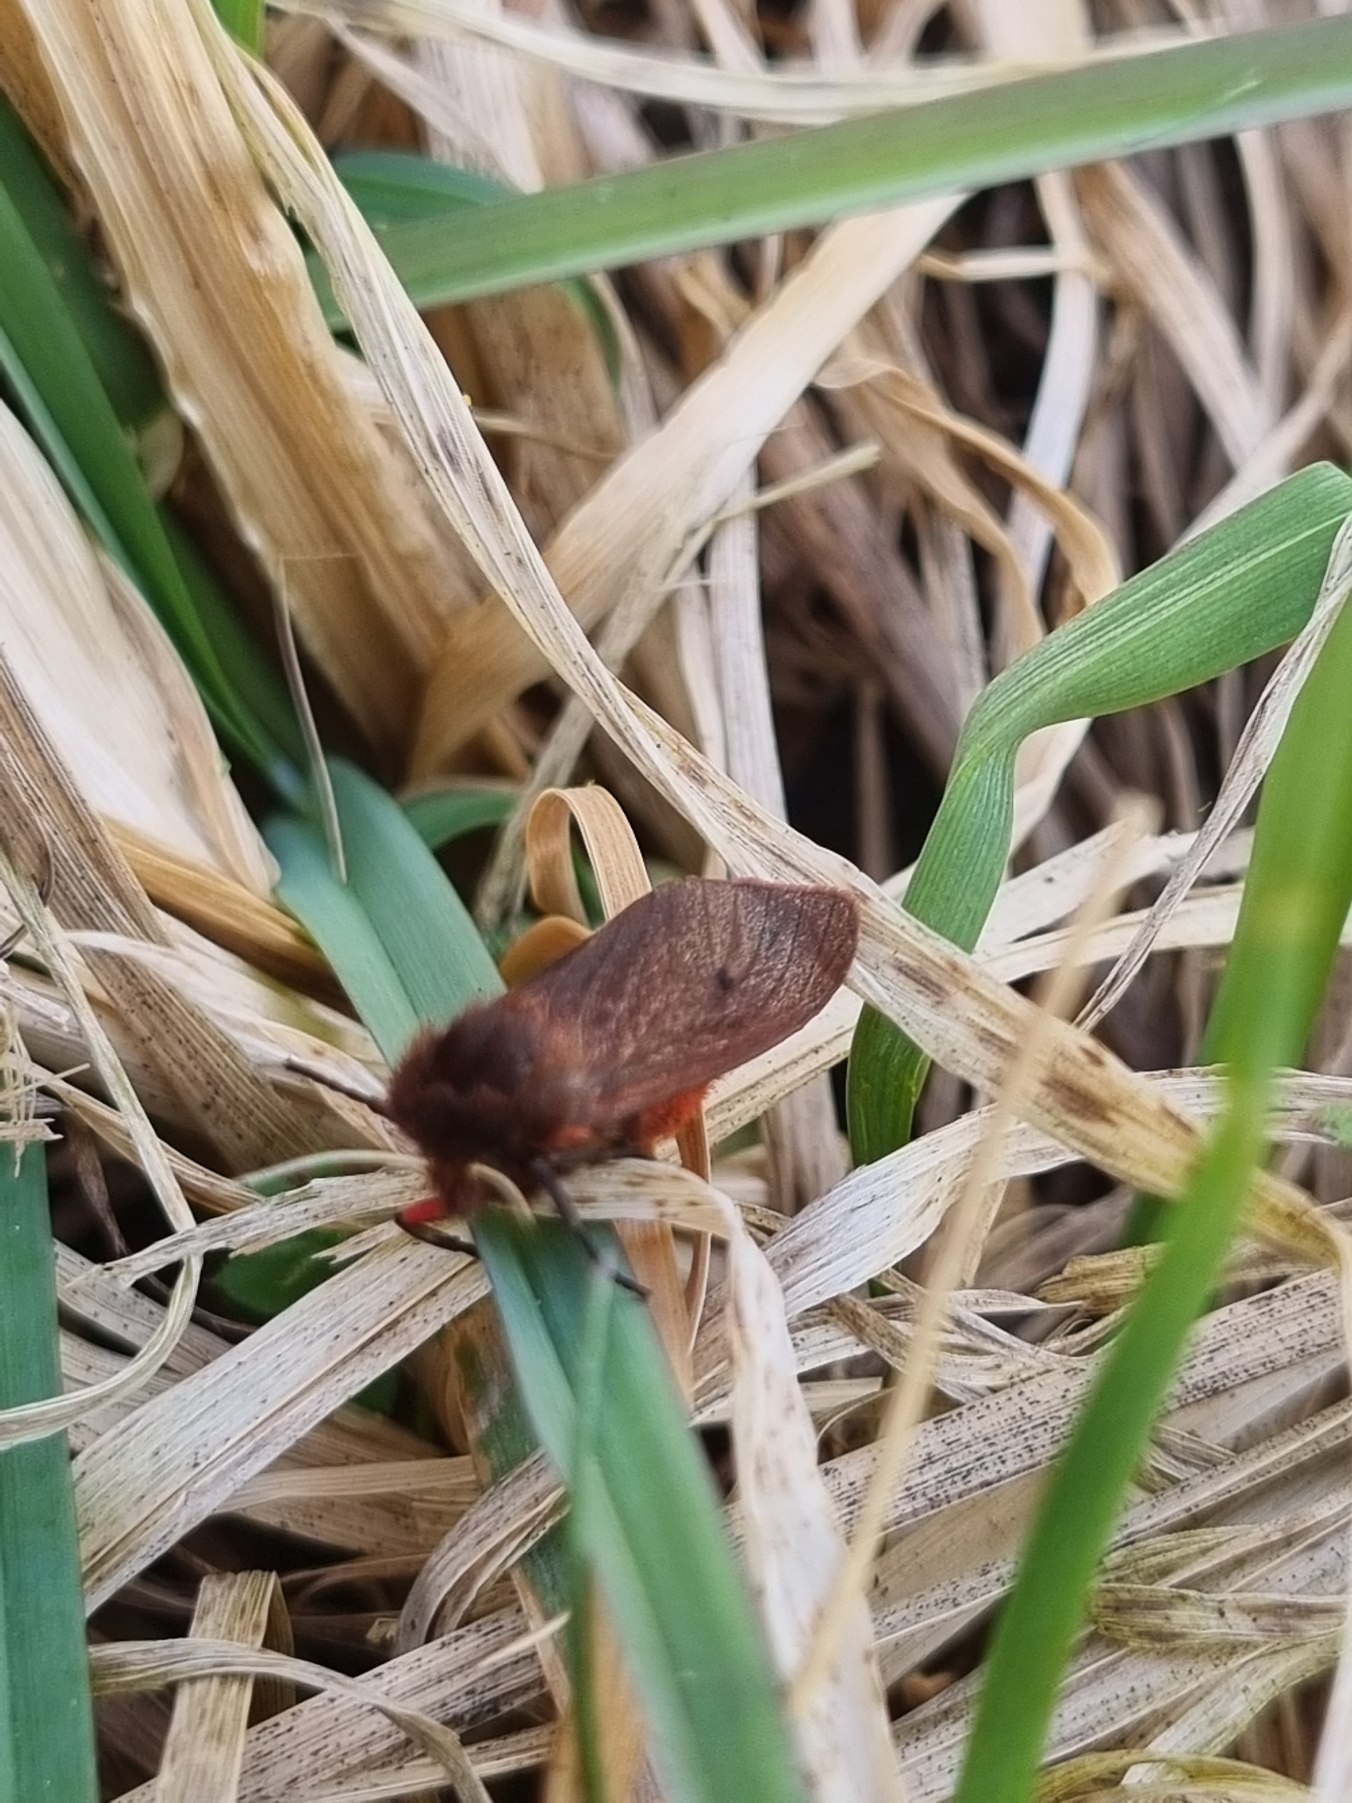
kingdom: Animalia
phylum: Arthropoda
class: Insecta
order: Lepidoptera
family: Erebidae
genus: Phragmatobia
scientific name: Phragmatobia fuliginosa
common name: Kanelbjørn
